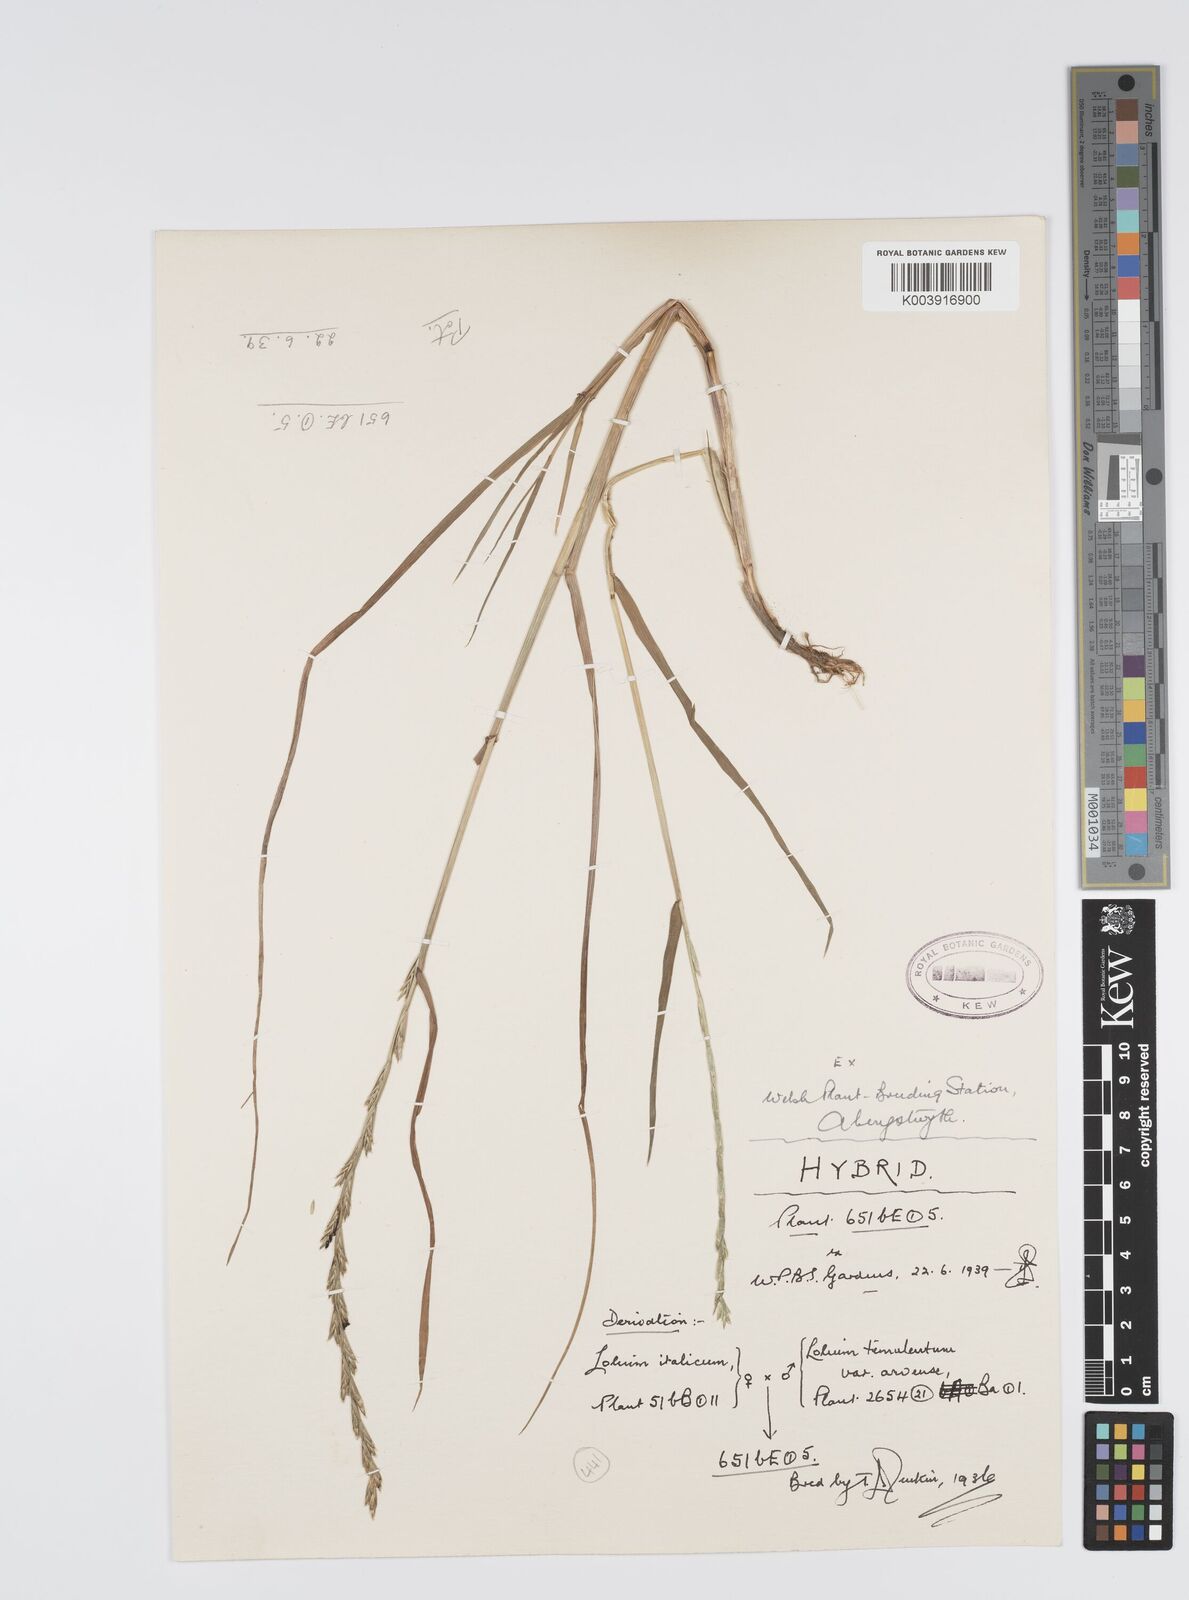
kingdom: Plantae
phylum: Tracheophyta
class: Liliopsida
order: Poales
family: Poaceae
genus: Lolium
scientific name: Lolium multiflorum
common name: Annual ryegrass
